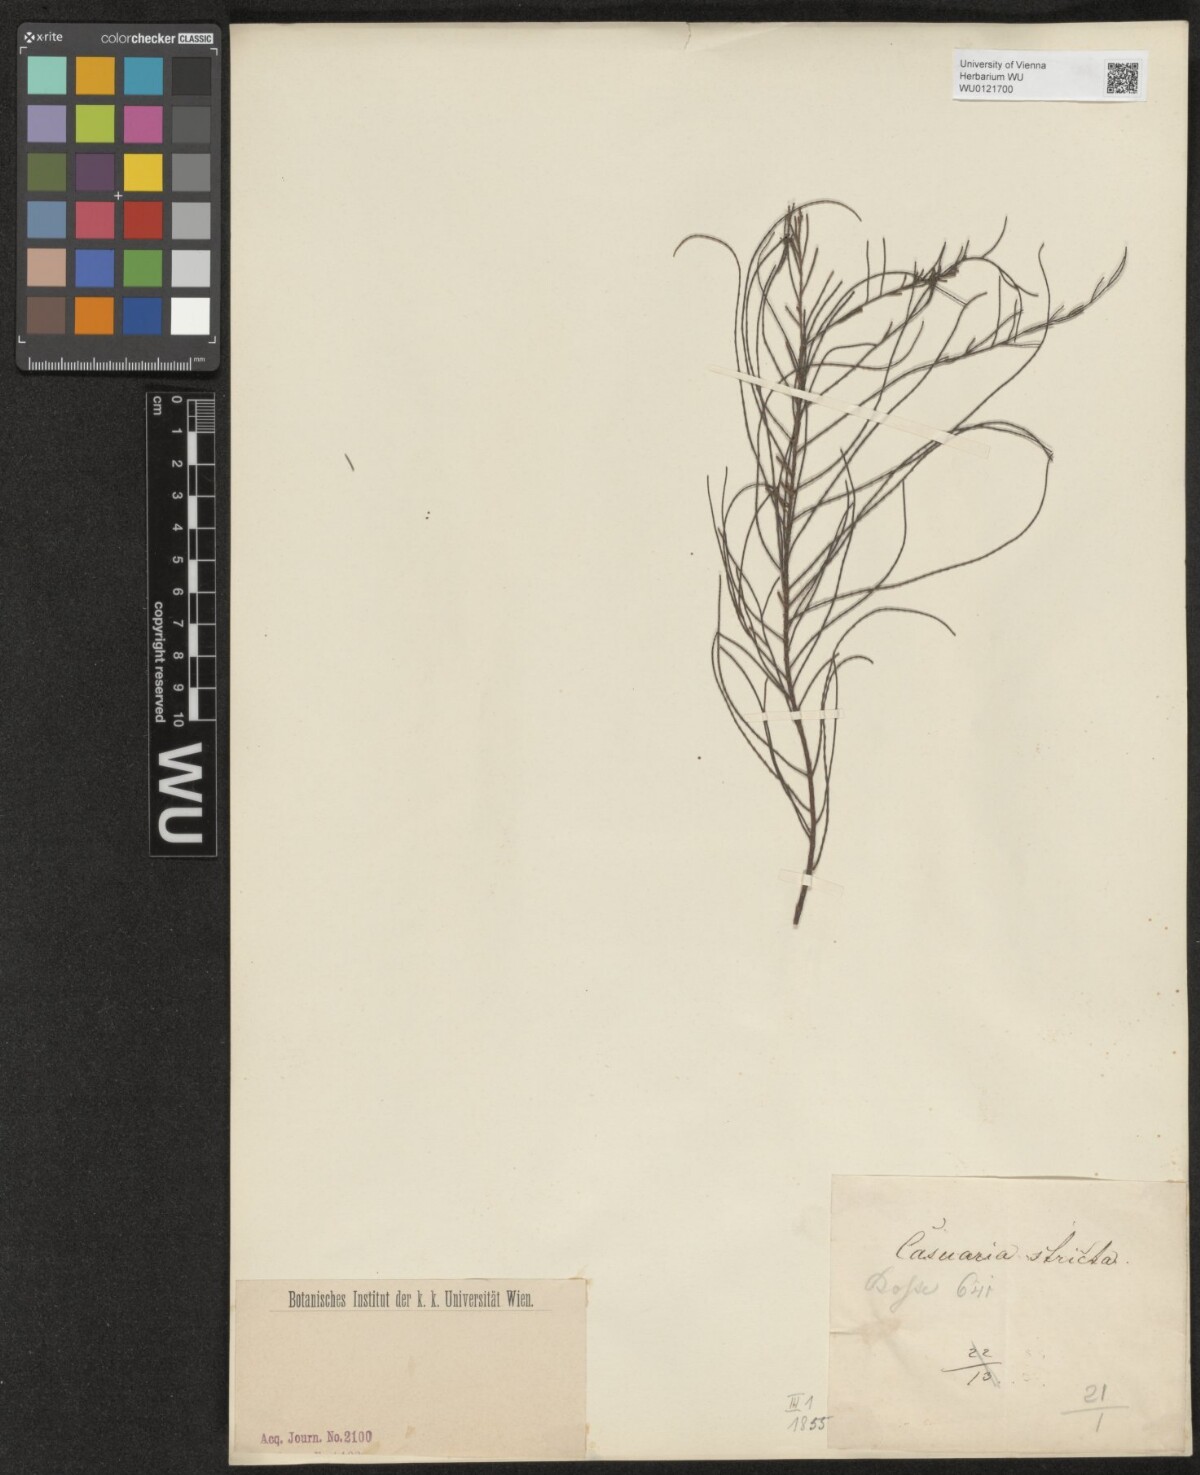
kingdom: Plantae
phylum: Tracheophyta
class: Magnoliopsida
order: Fagales
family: Casuarinaceae
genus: Casuarina
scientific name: Casuarina stricta
